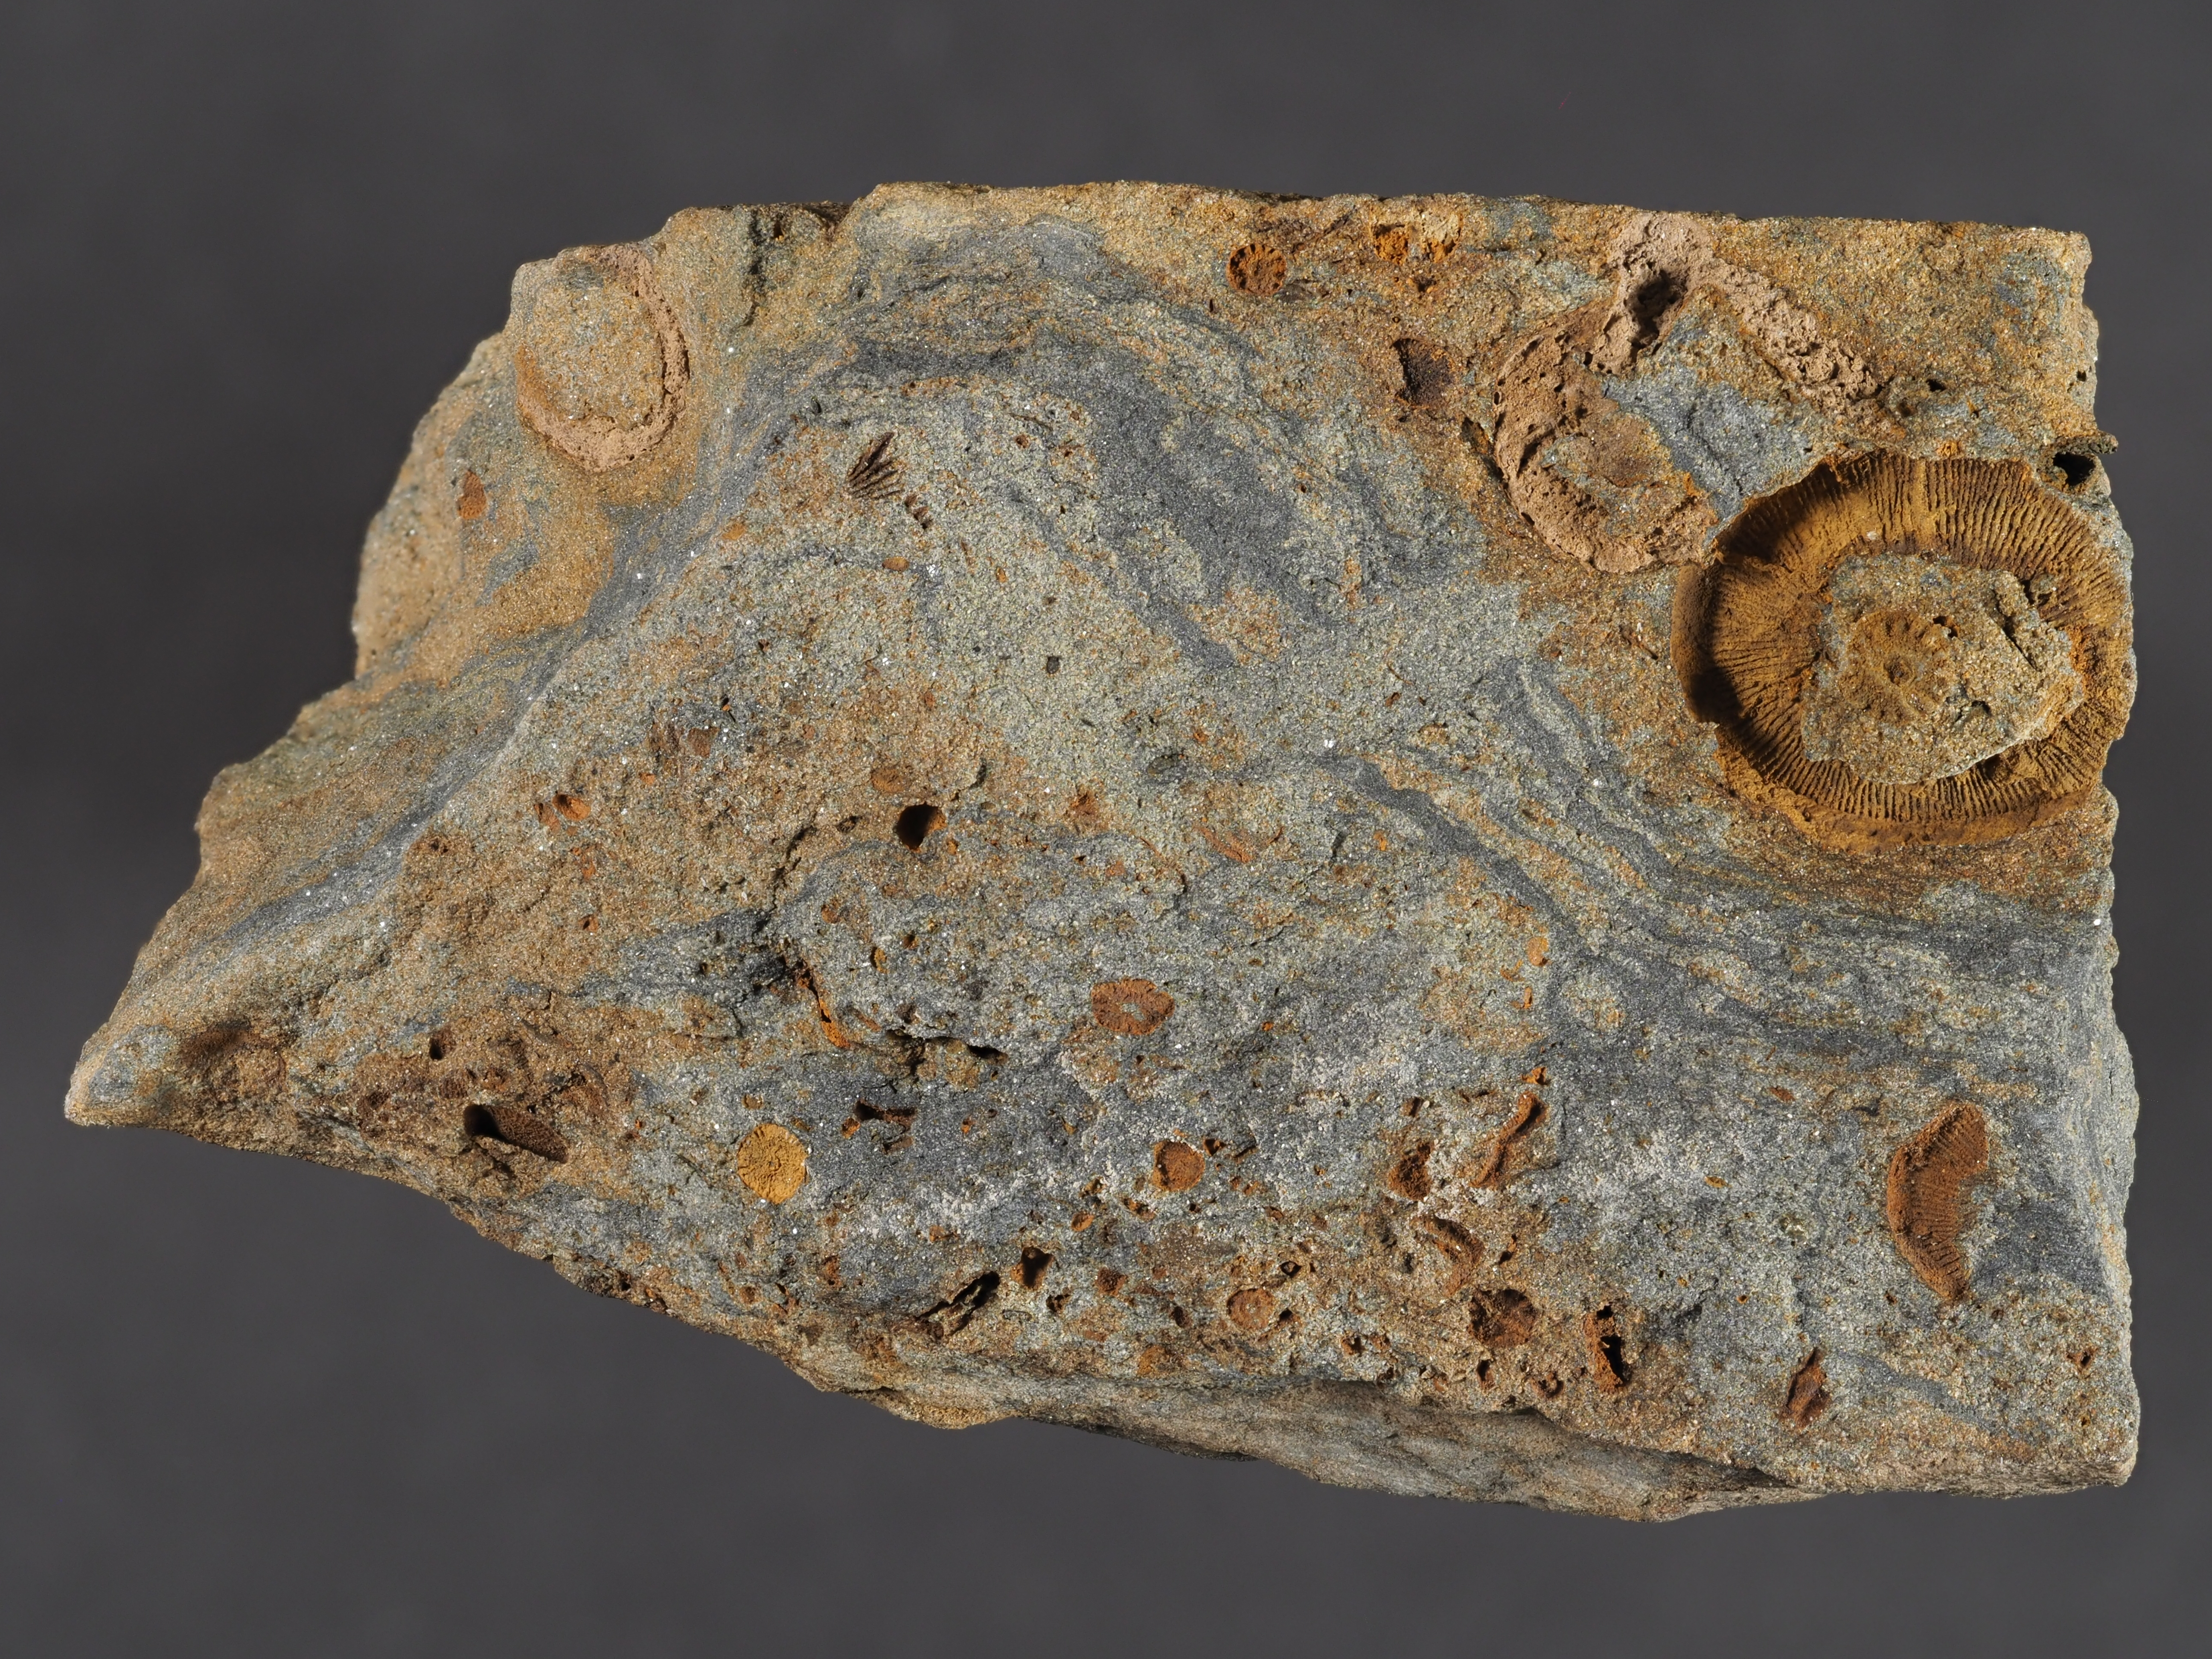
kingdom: Animalia
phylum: Echinodermata
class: Crinoidea
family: Melocrinitidae
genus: Ctenocrinus
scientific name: Ctenocrinus
